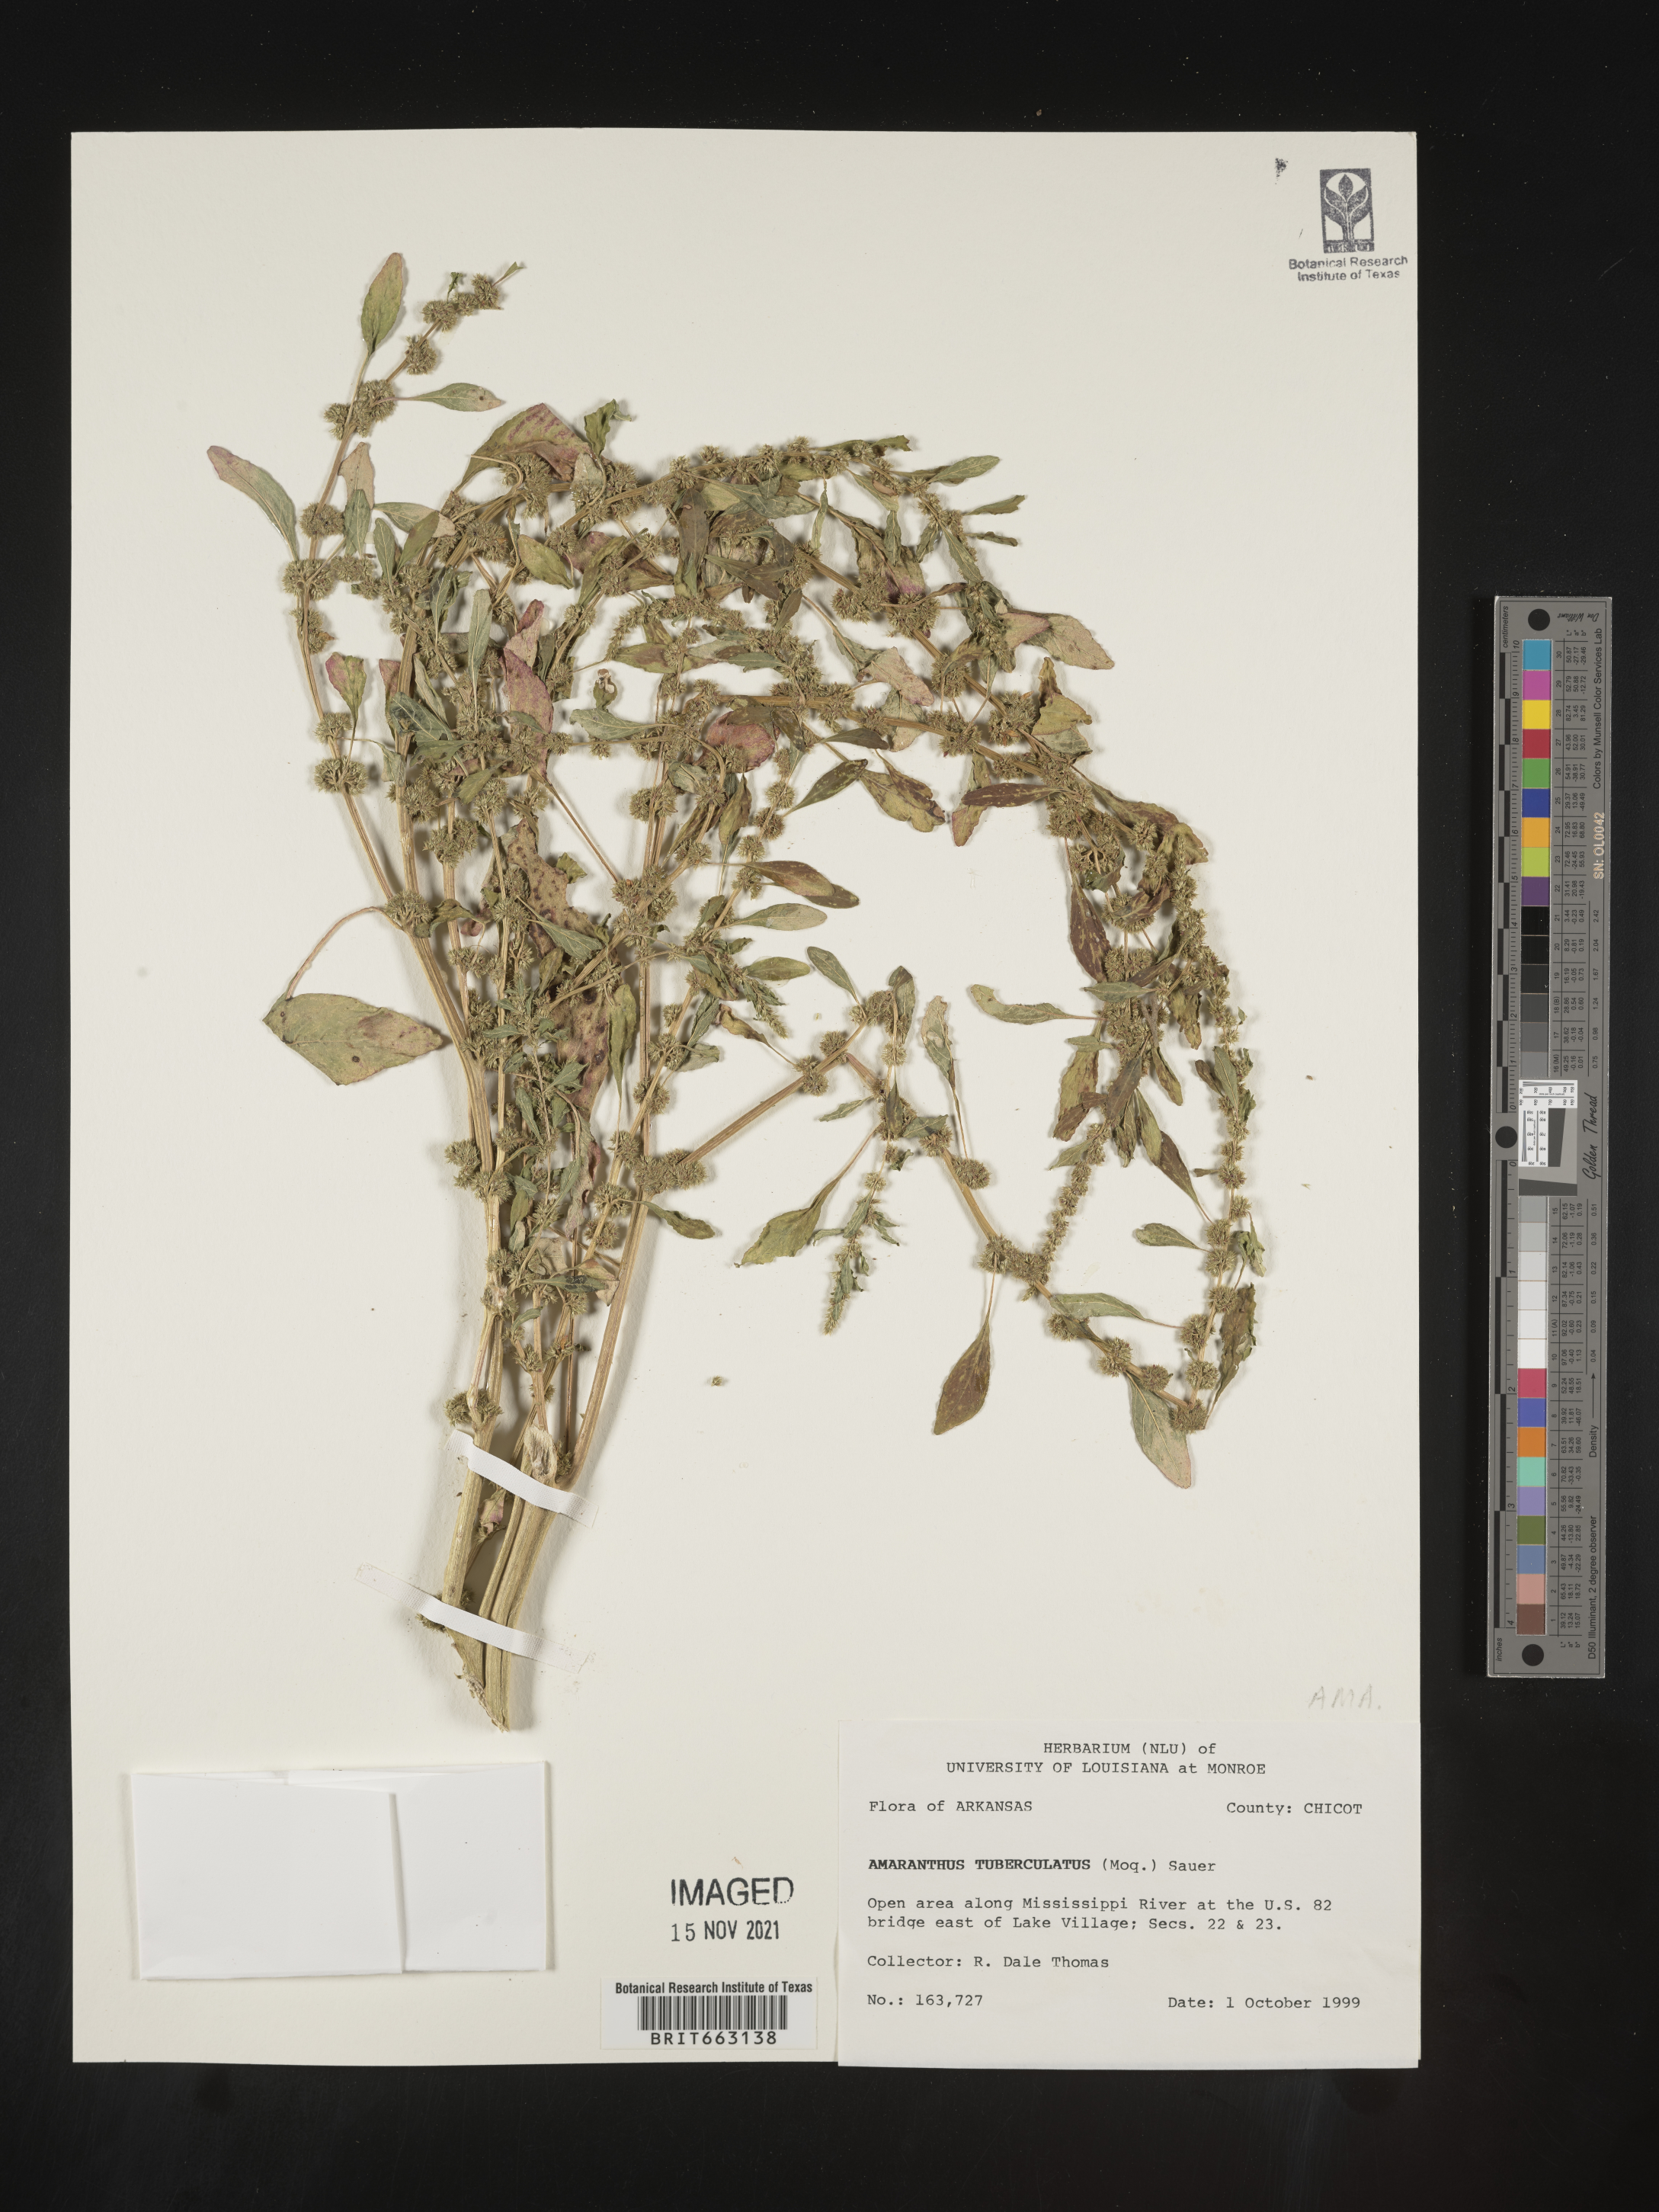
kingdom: Plantae
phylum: Tracheophyta
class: Magnoliopsida
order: Caryophyllales
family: Amaranthaceae
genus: Amaranthus
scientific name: Amaranthus tuberculatus
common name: Rough-fruit amaranth
